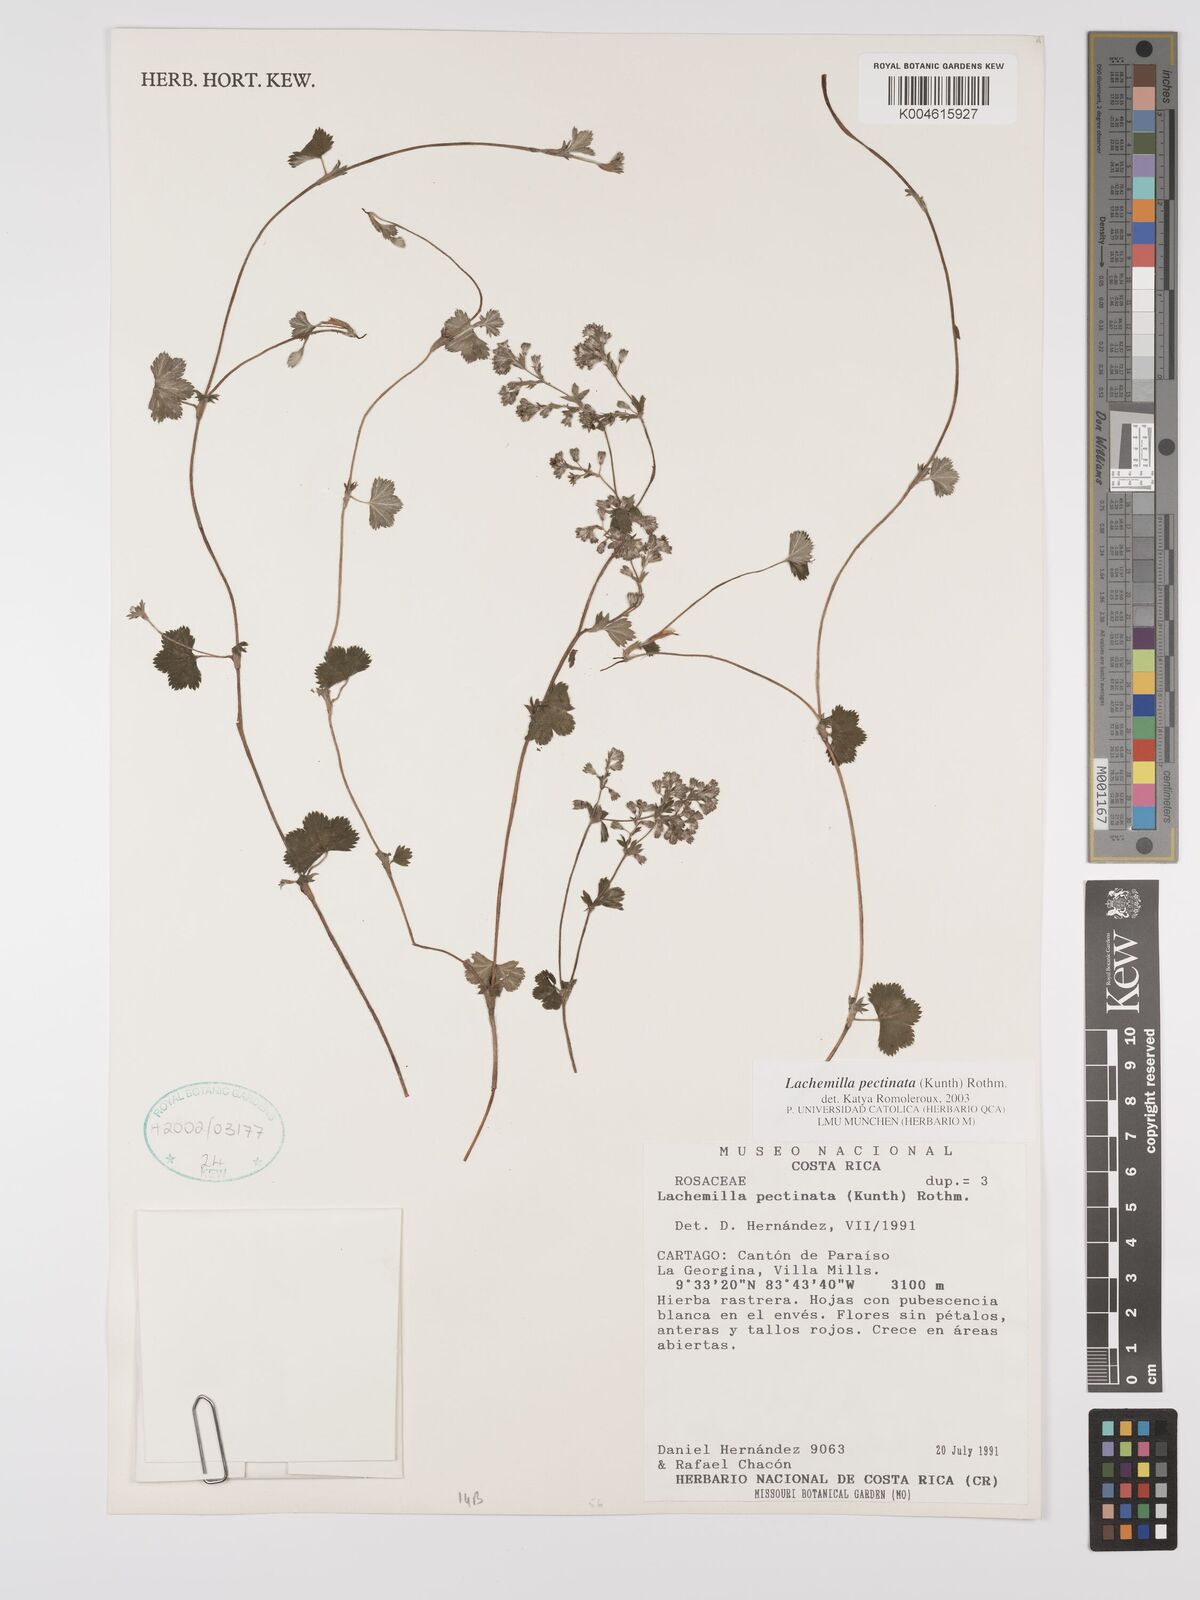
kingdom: Plantae
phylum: Tracheophyta
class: Magnoliopsida
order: Rosales
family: Rosaceae
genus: Lachemilla
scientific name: Lachemilla pectinata
